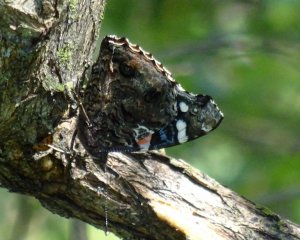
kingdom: Animalia
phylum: Arthropoda
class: Insecta
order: Lepidoptera
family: Nymphalidae
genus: Vanessa
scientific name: Vanessa atalanta
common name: Red Admiral
